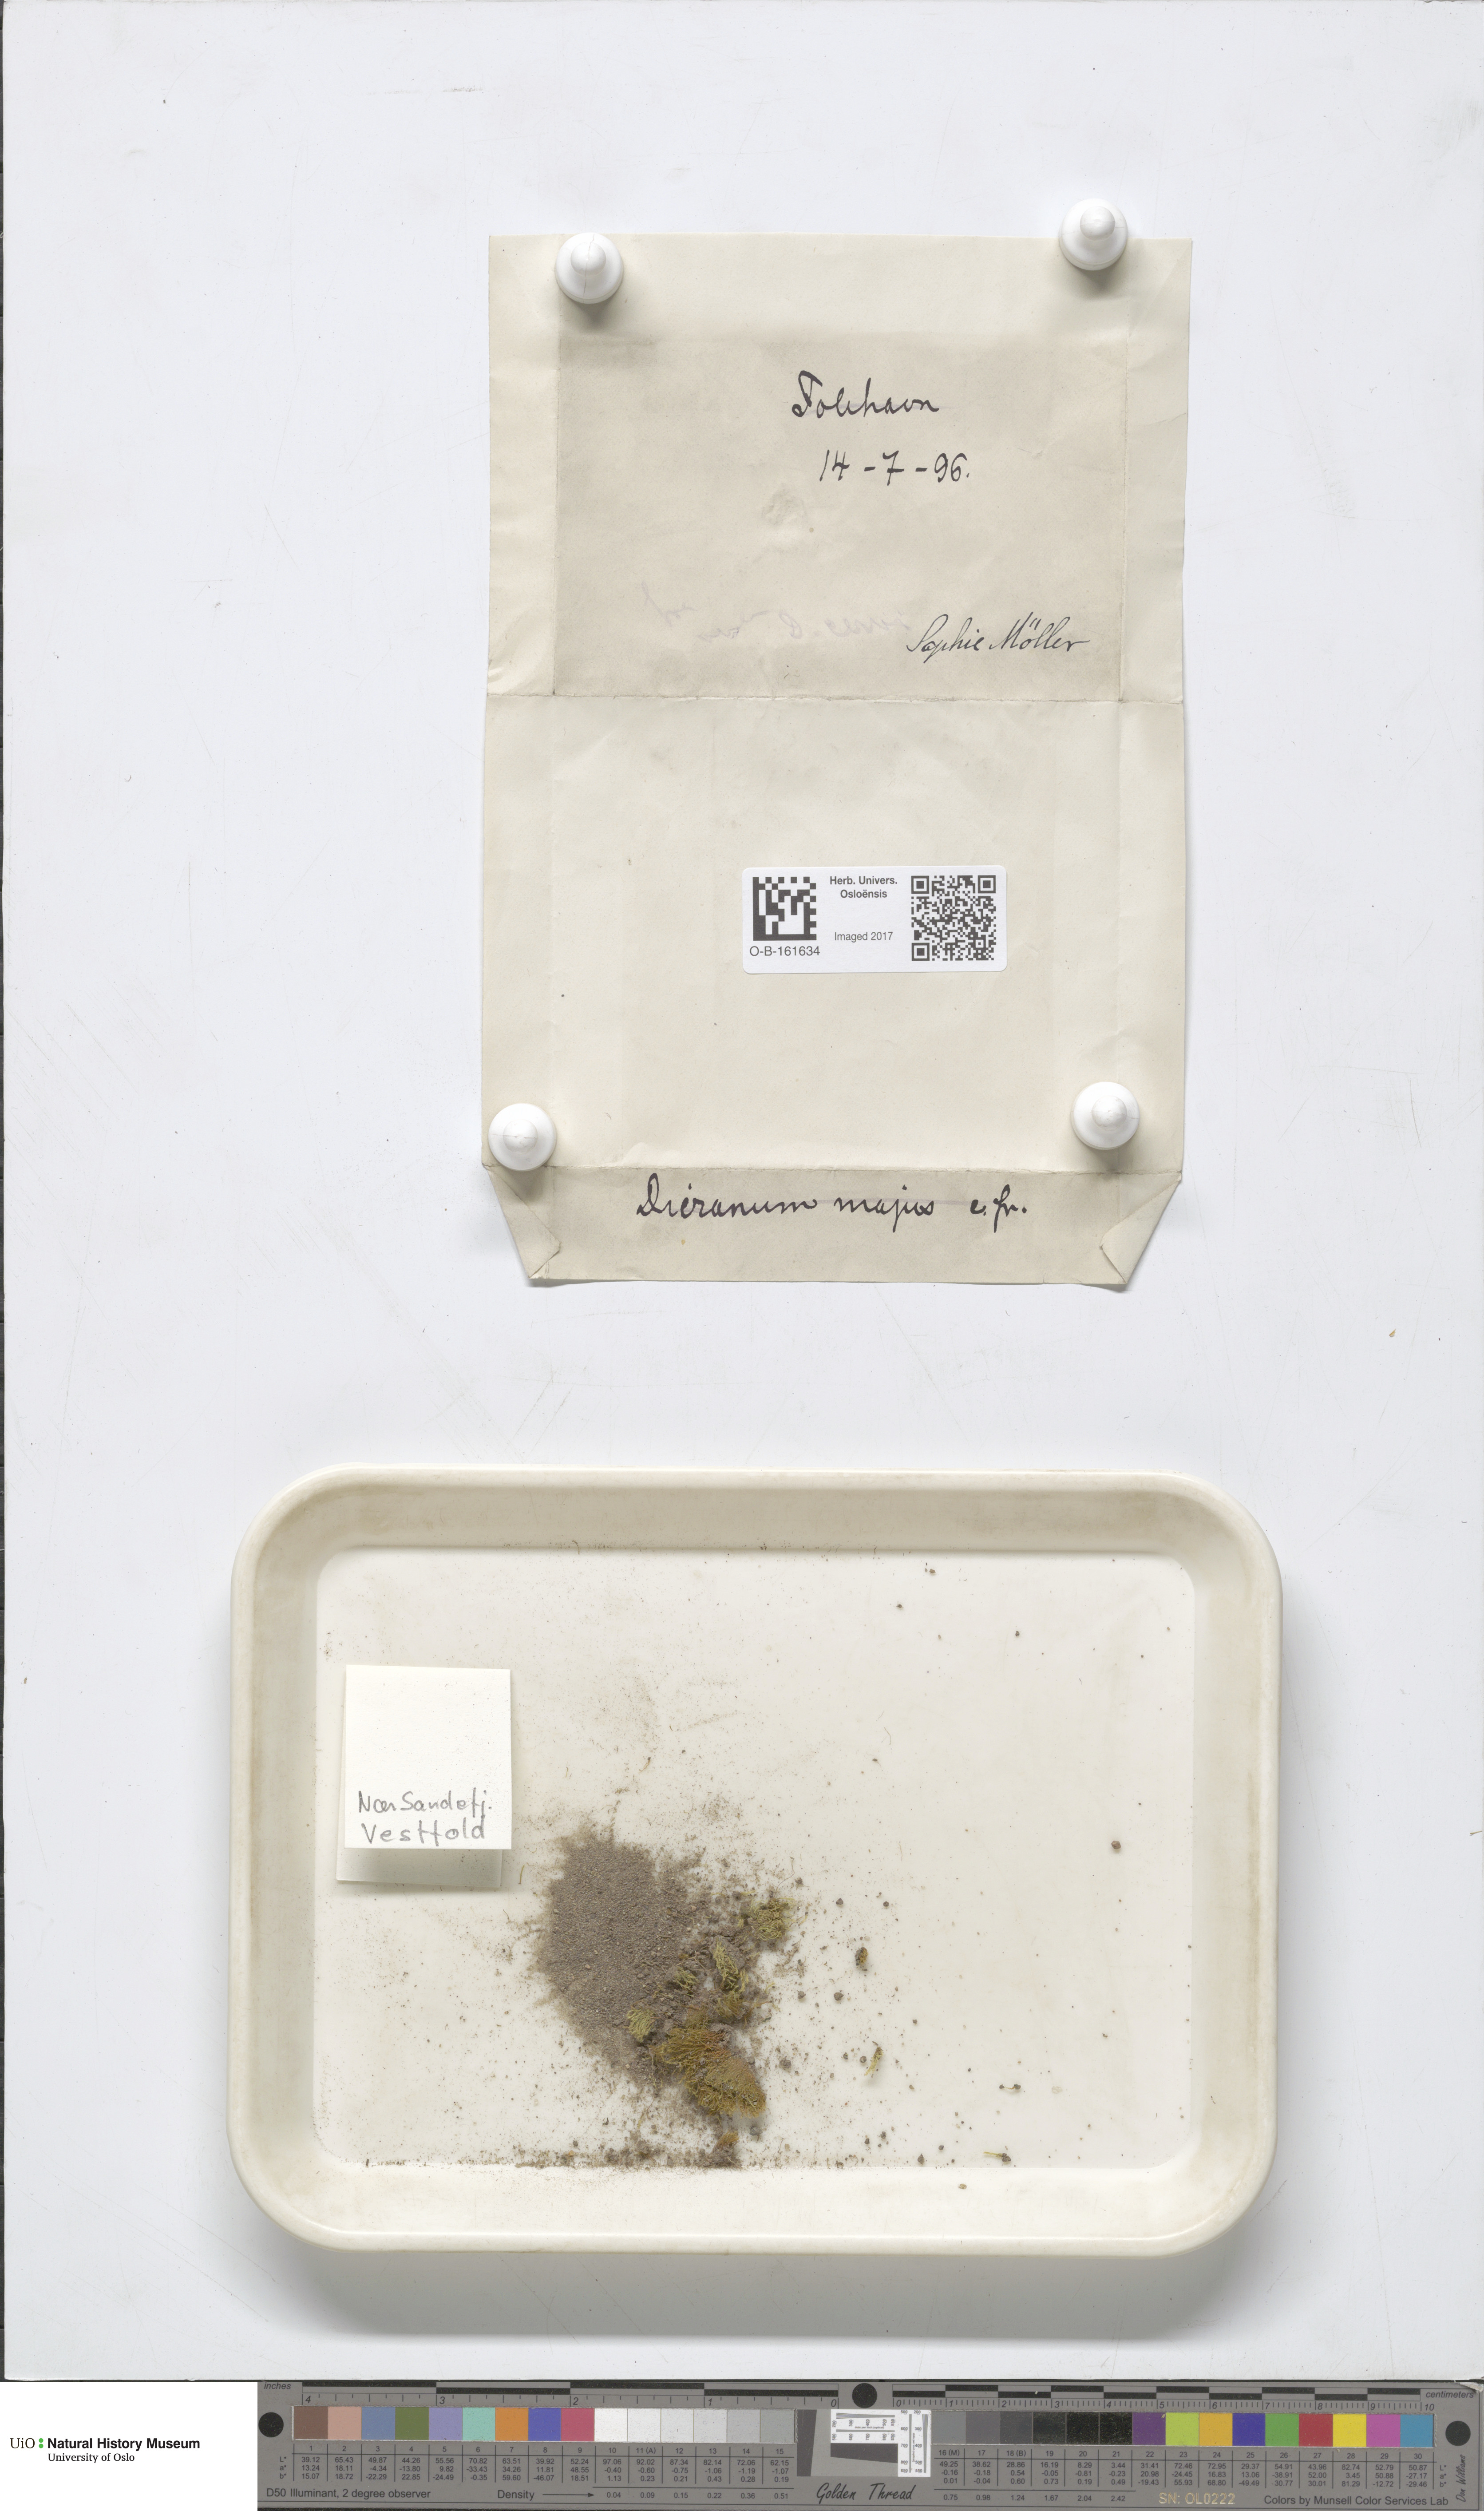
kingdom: Plantae
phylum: Bryophyta
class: Bryopsida
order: Dicranales
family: Dicranaceae
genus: Dicranum
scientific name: Dicranum majus
